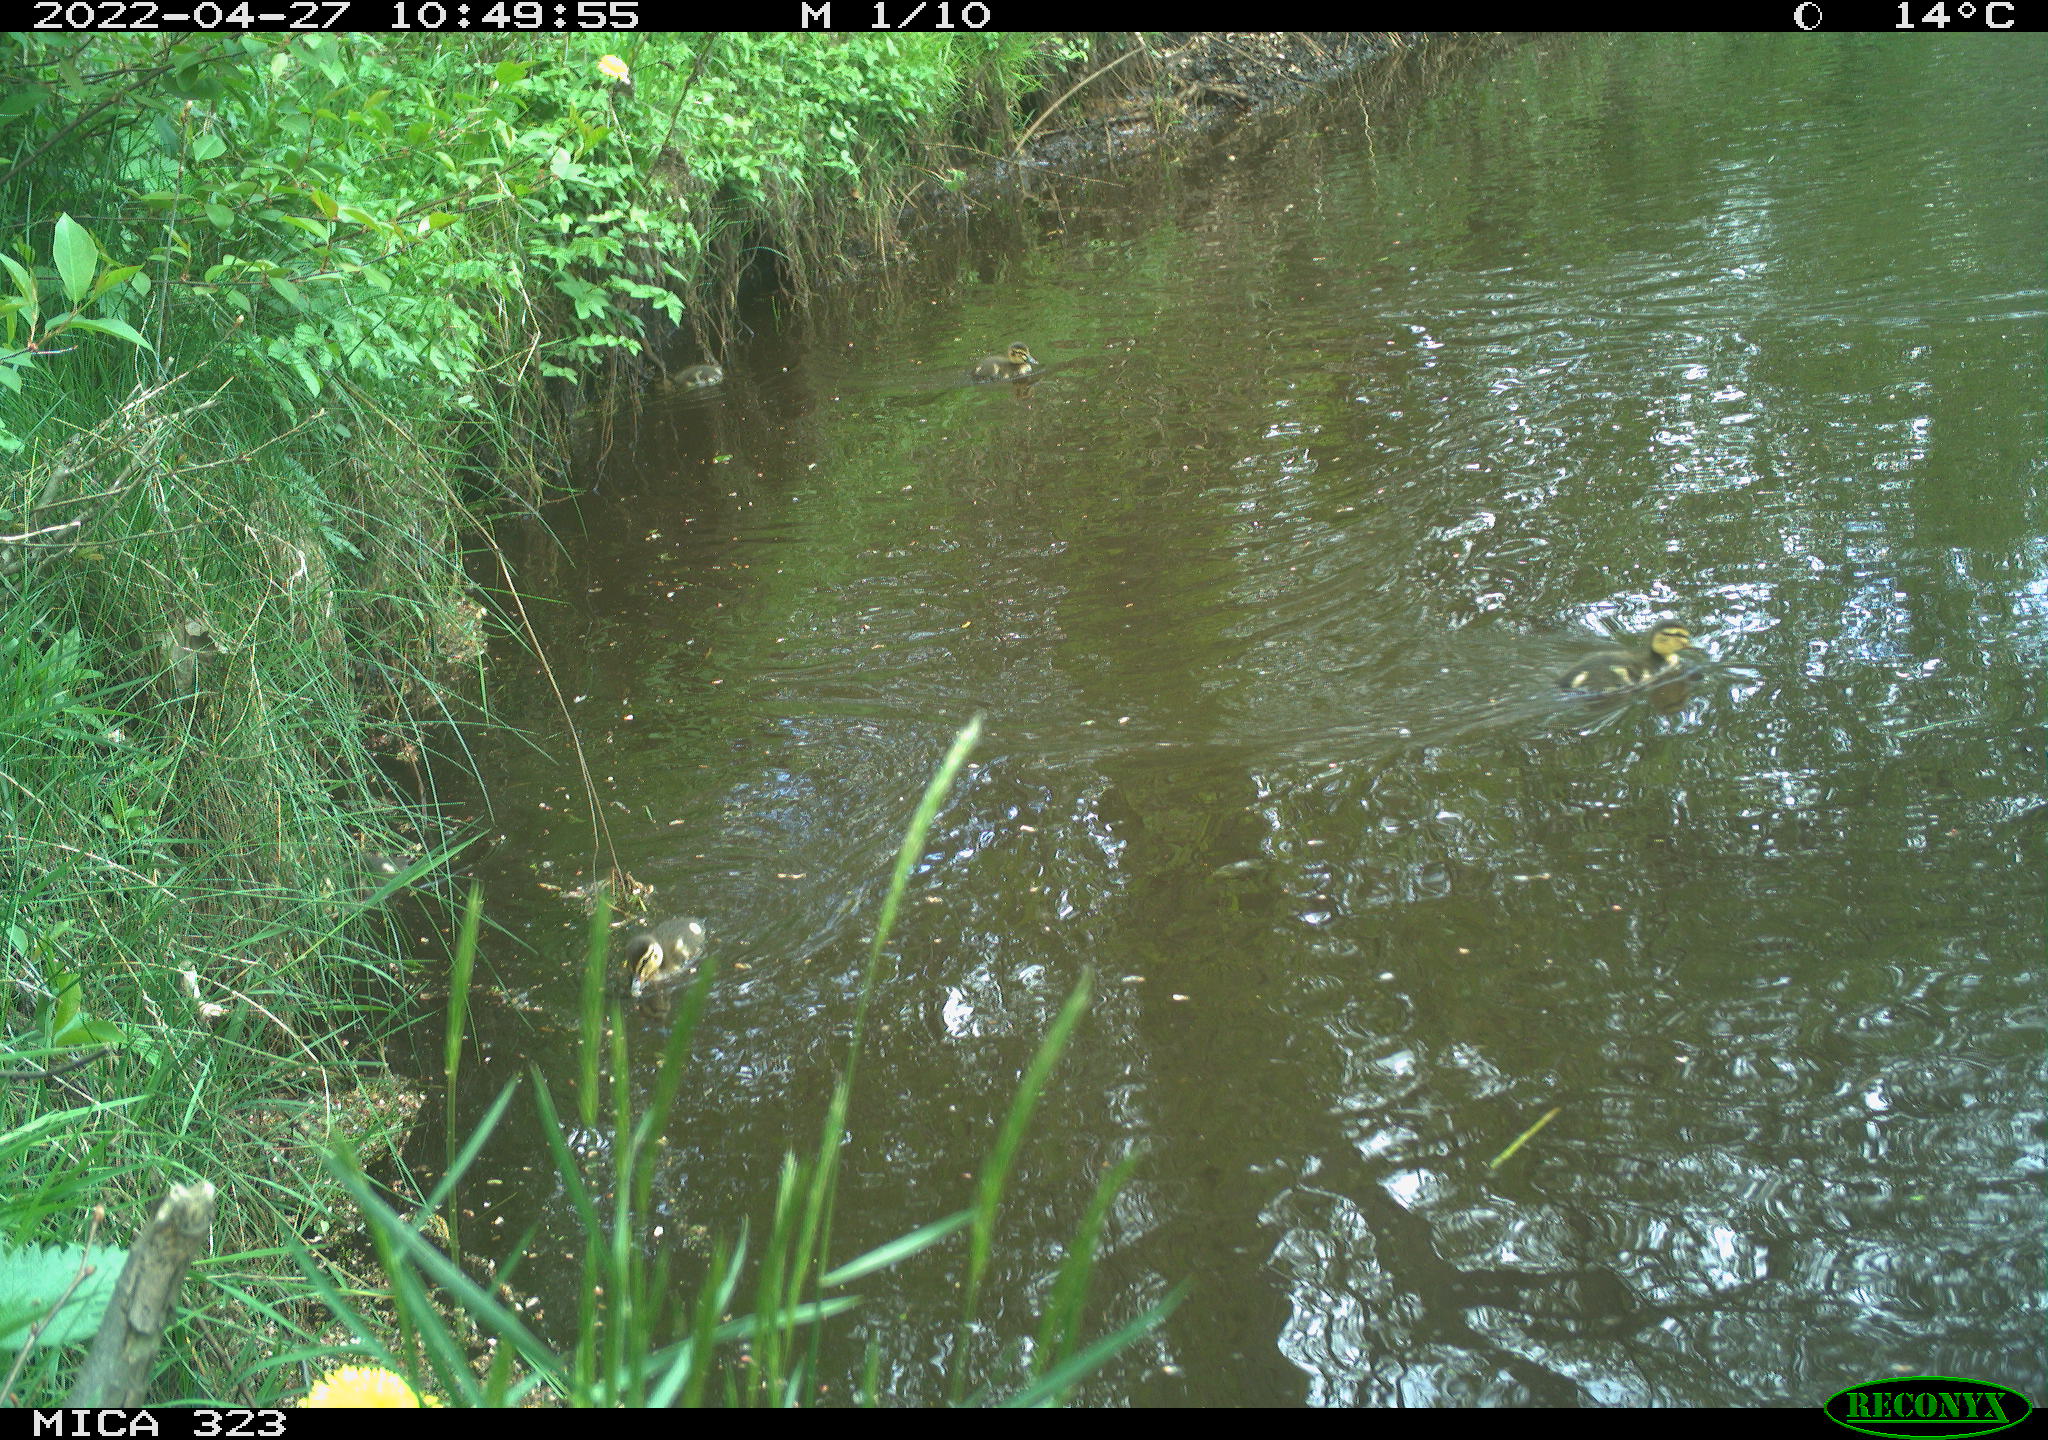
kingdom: Animalia
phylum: Chordata
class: Aves
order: Anseriformes
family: Anatidae
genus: Anas
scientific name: Anas platyrhynchos
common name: Mallard
